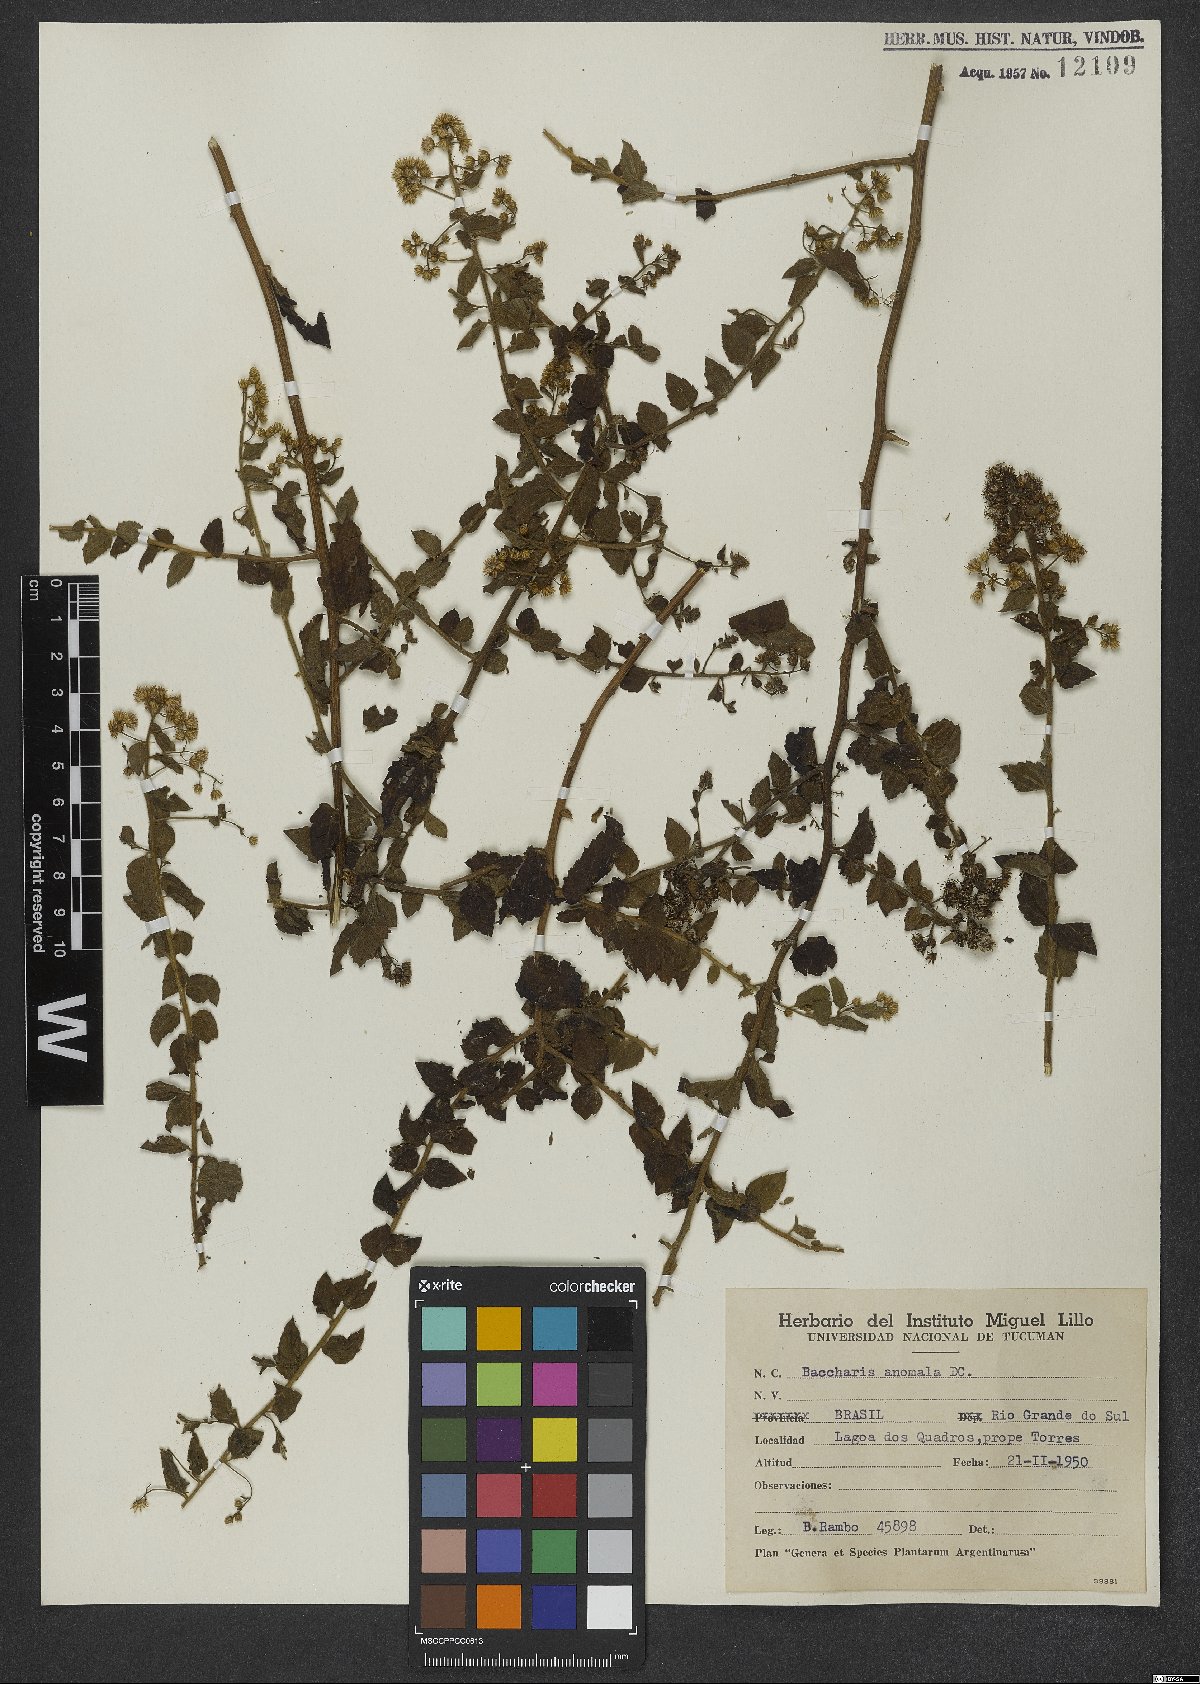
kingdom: Plantae
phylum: Tracheophyta
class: Magnoliopsida
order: Asterales
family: Asteraceae
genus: Baccharis
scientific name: Baccharis anomala
